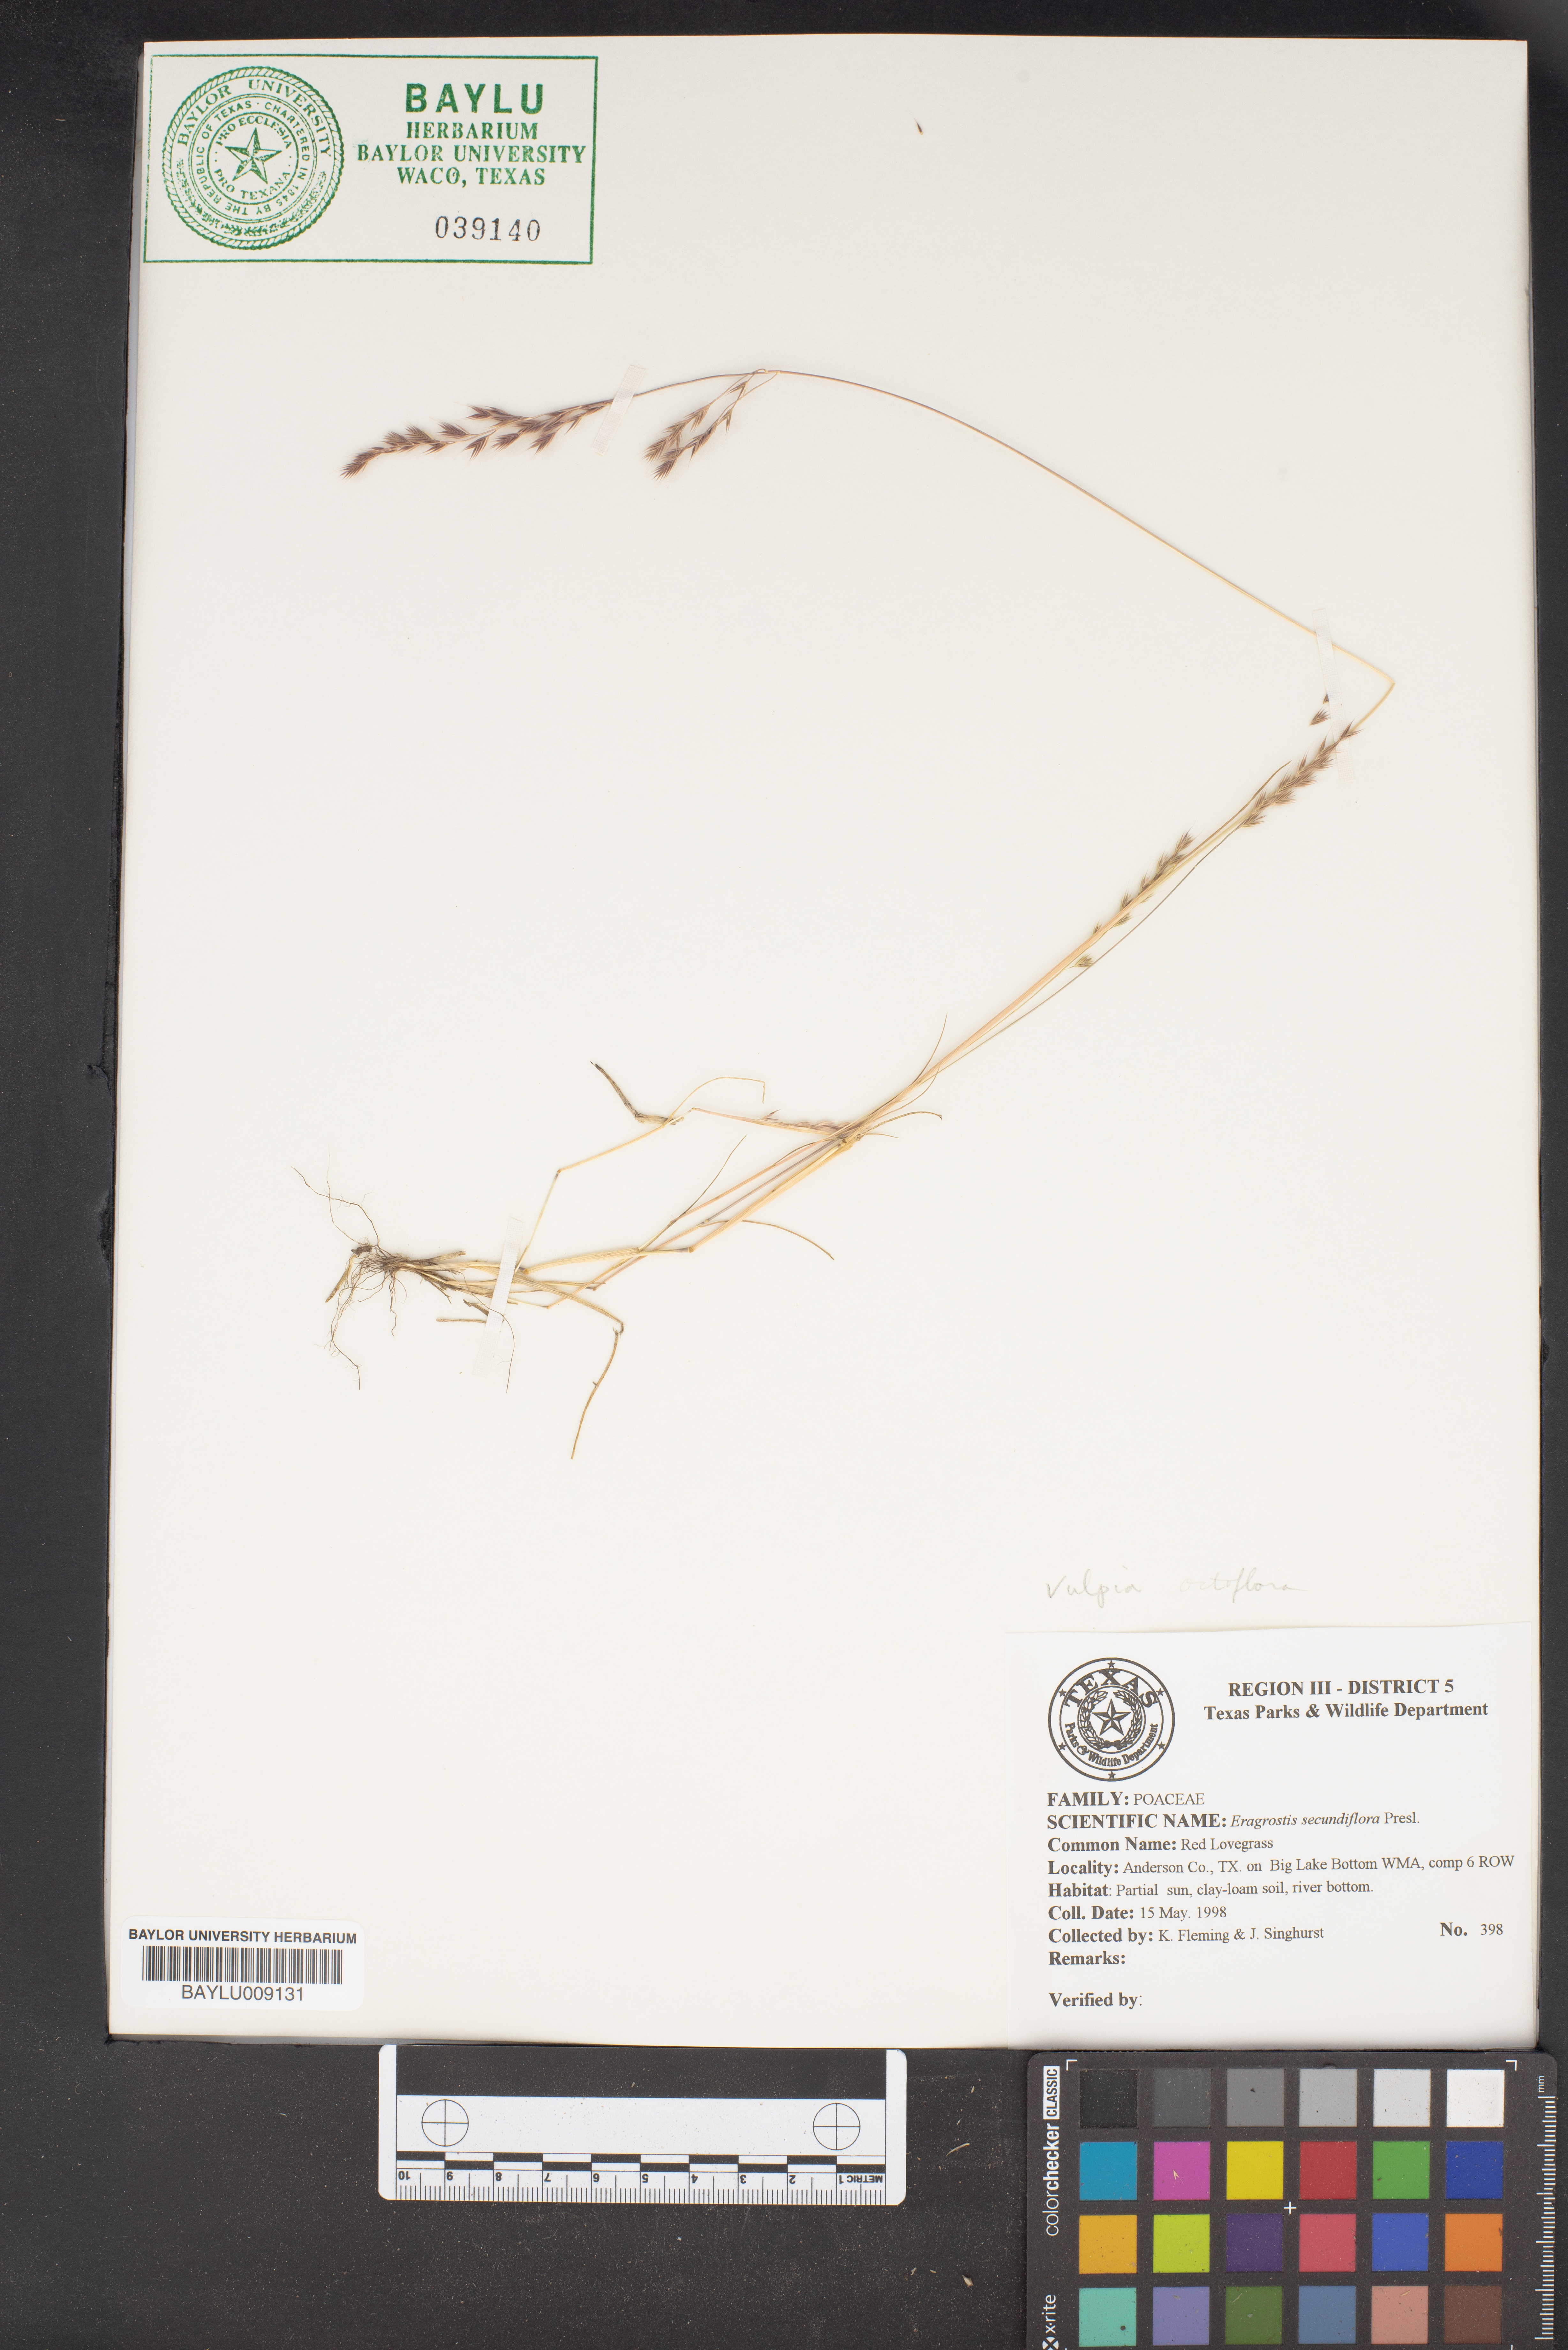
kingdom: Plantae
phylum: Tracheophyta
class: Liliopsida
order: Poales
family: Poaceae
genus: Eragrostis
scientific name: Eragrostis secundiflora
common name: Red love grass
